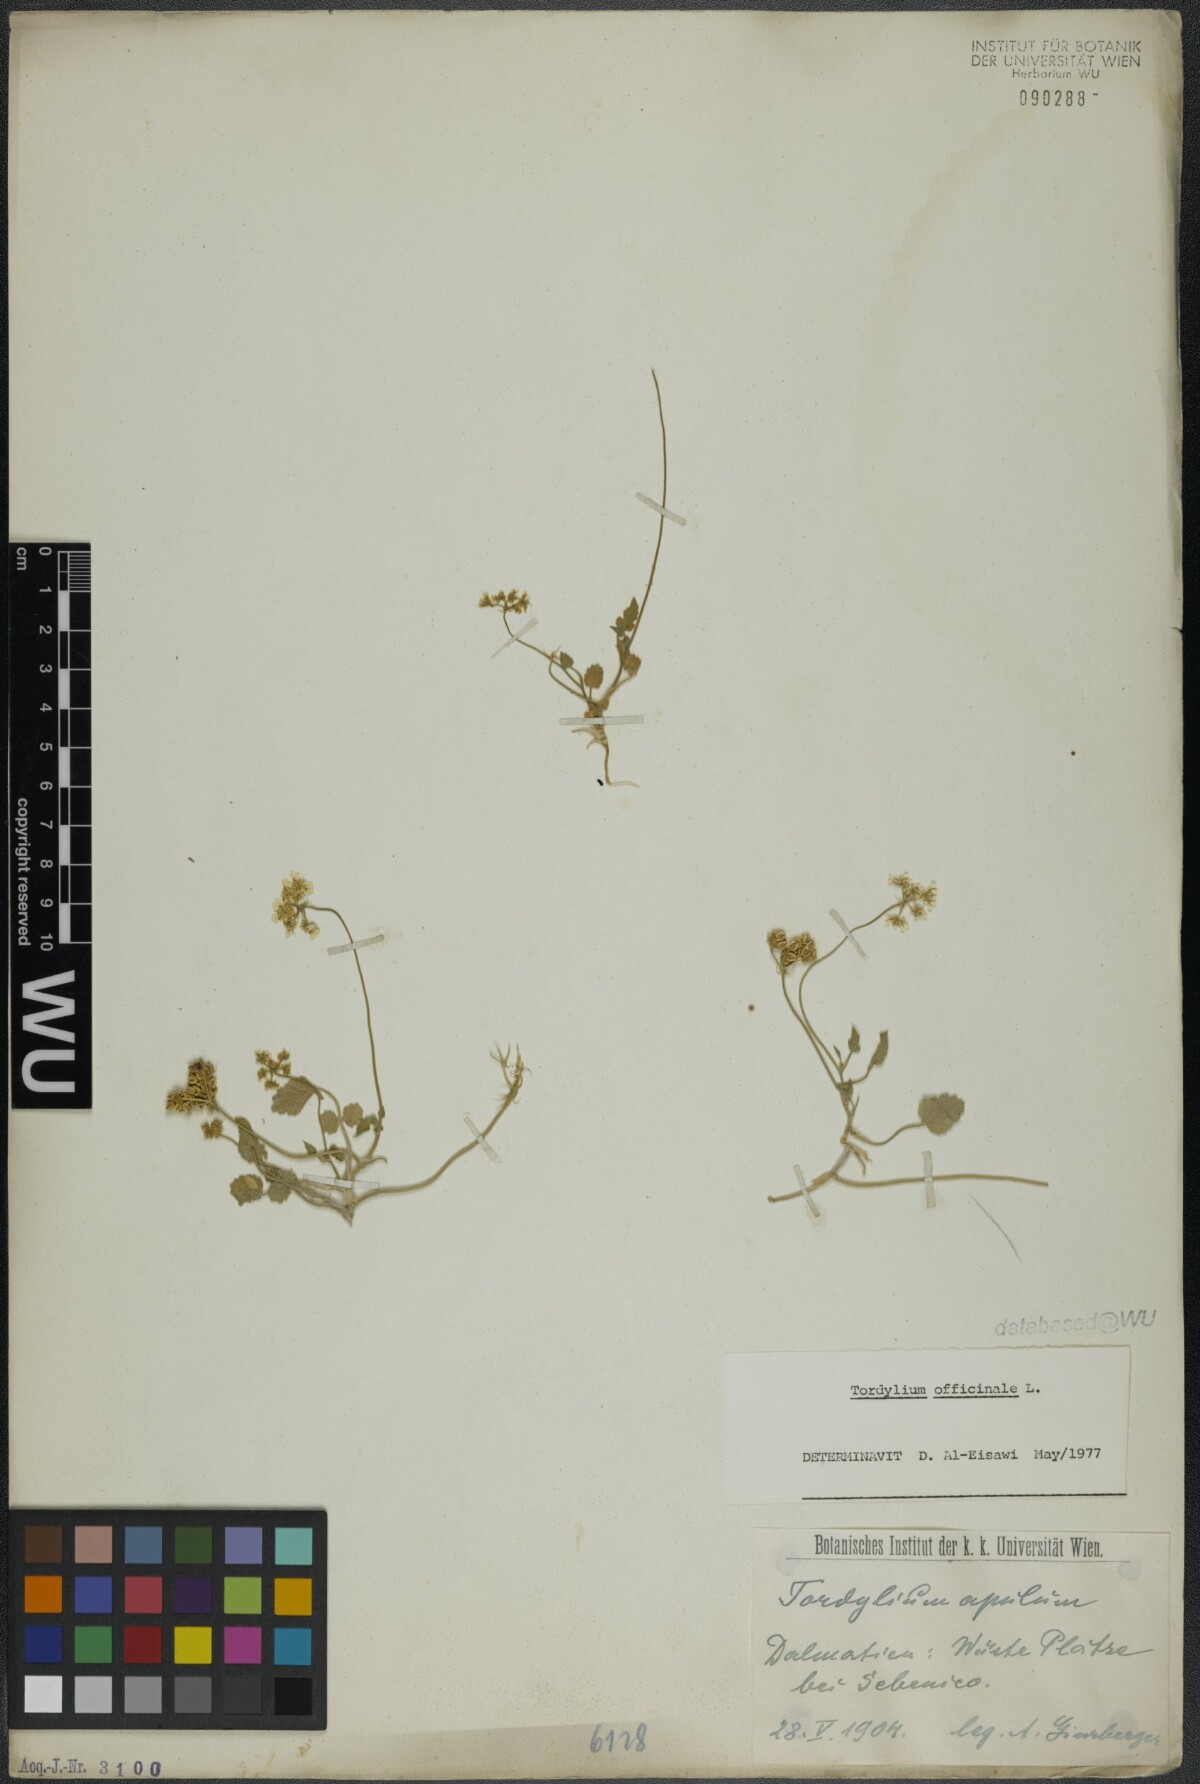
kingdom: Plantae
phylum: Tracheophyta
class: Magnoliopsida
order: Apiales
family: Apiaceae
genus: Tordylium
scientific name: Tordylium officinale
